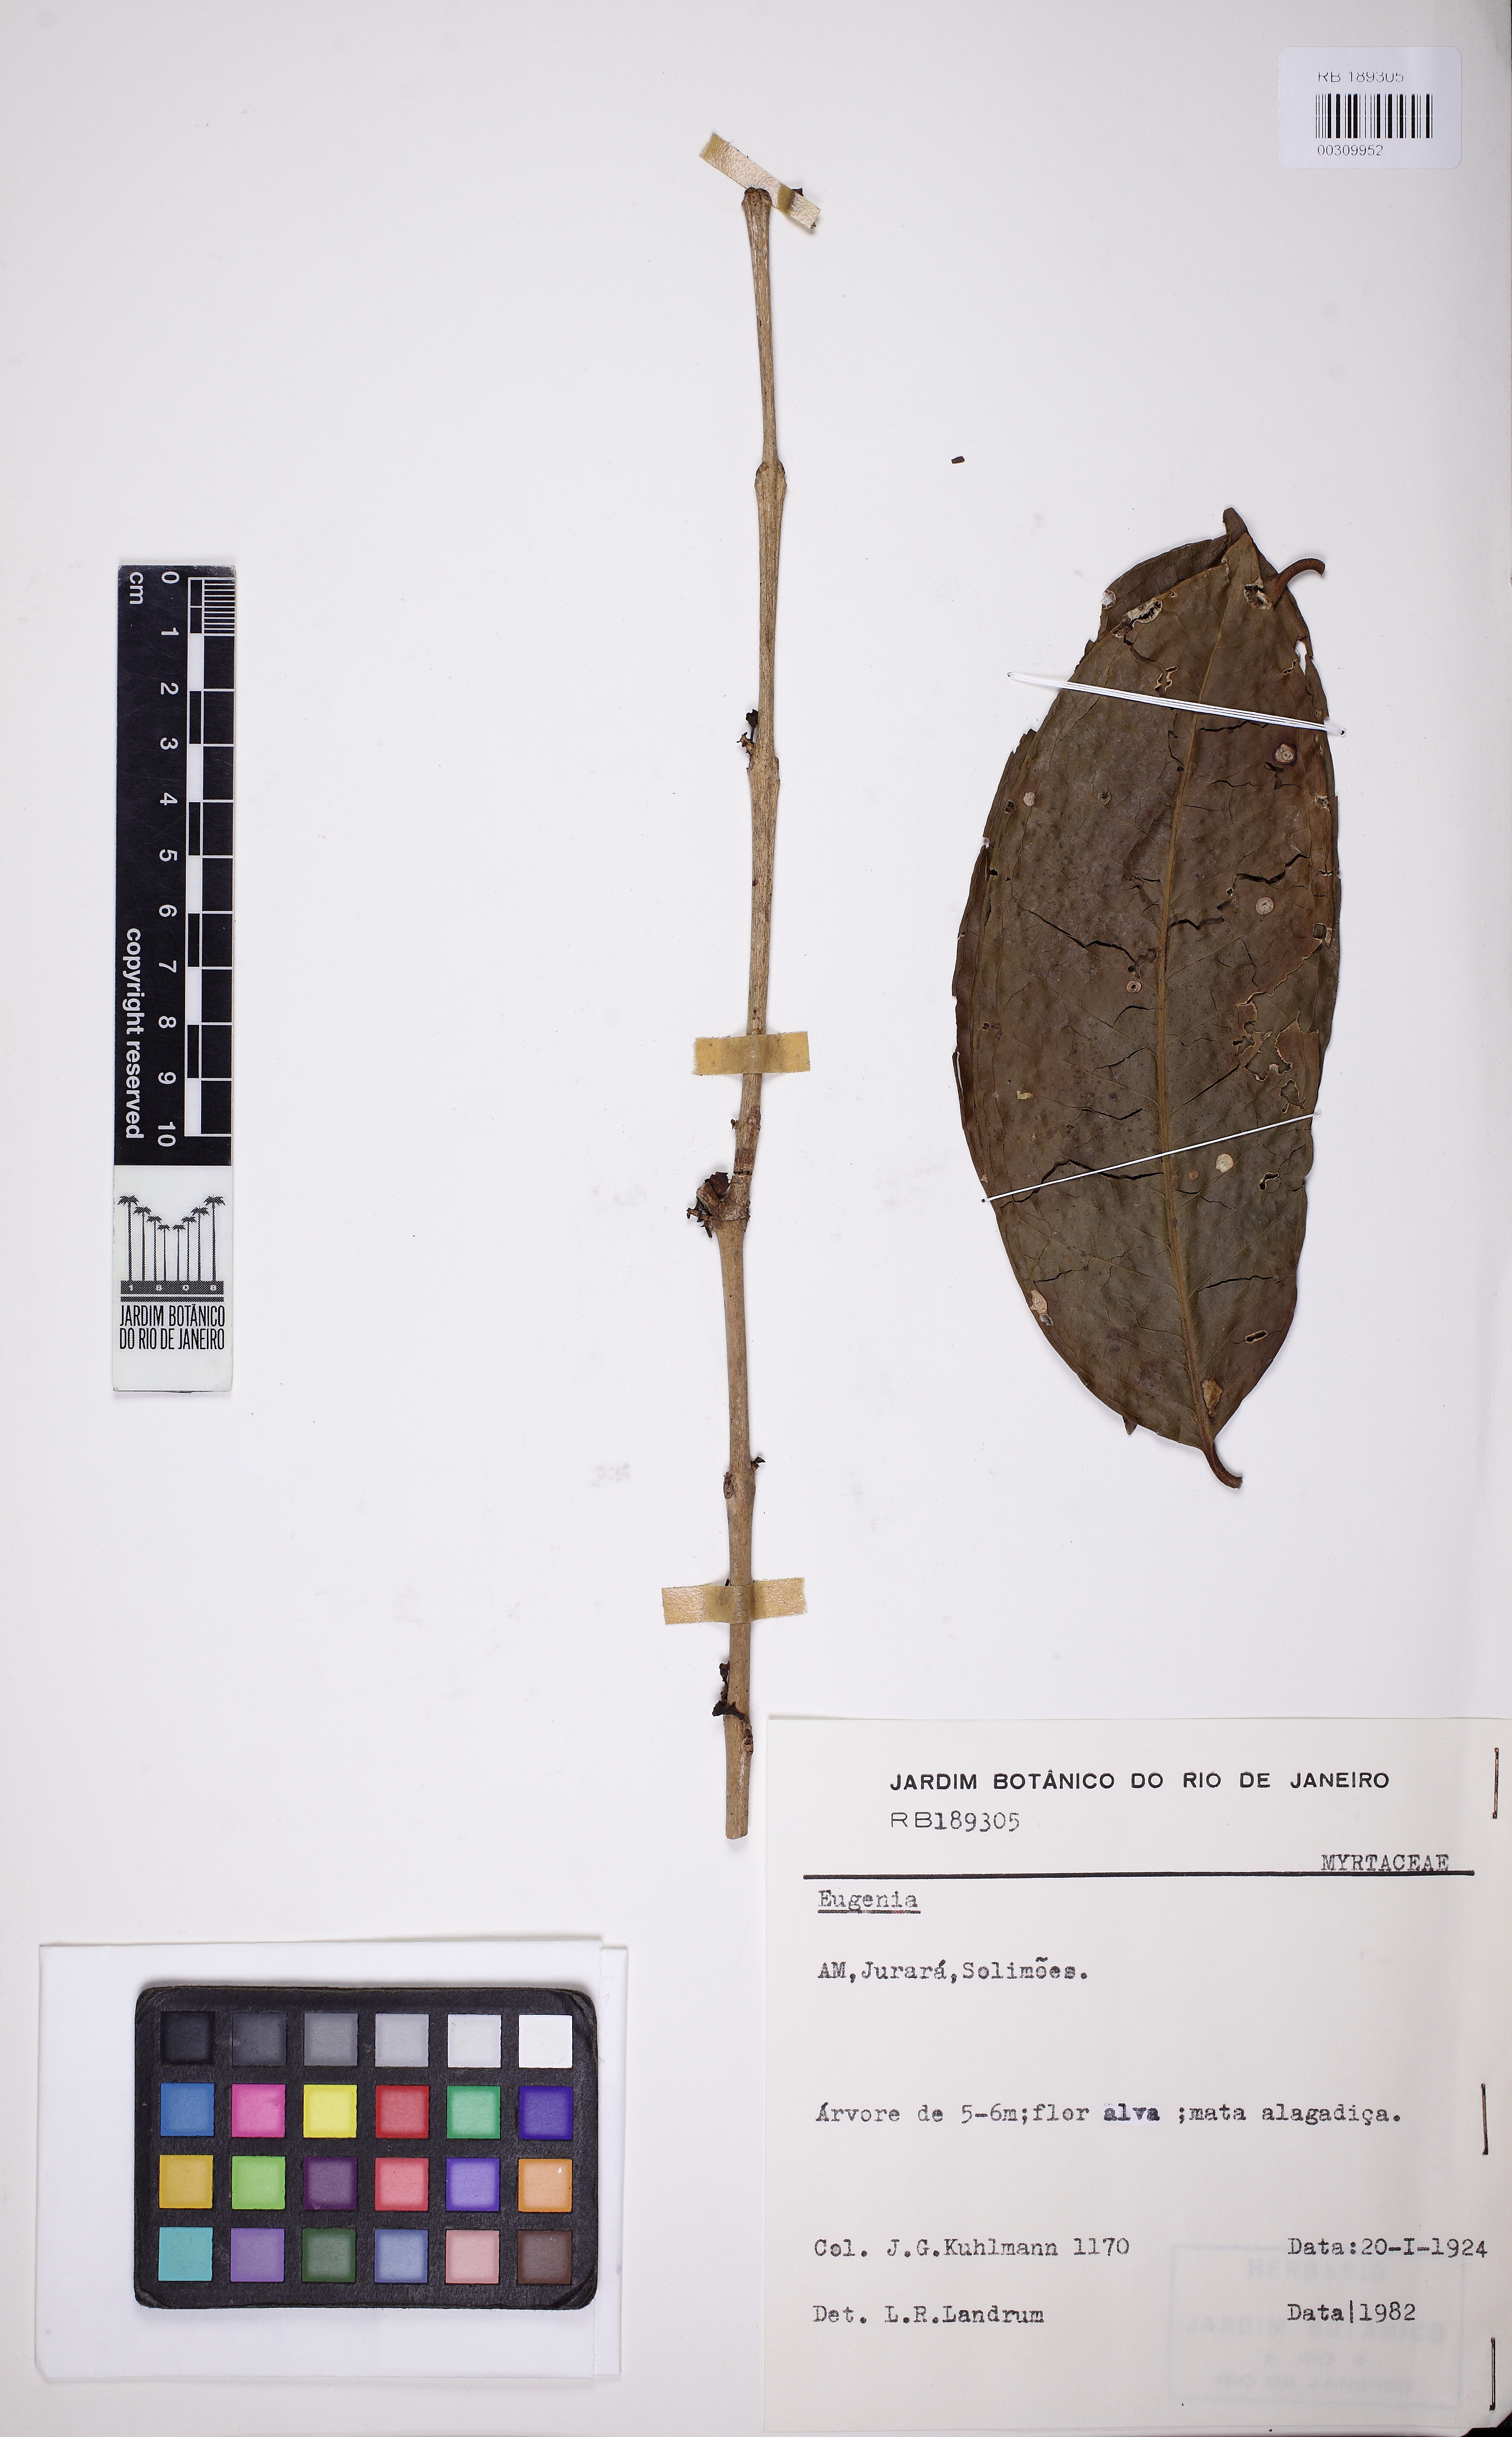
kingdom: Plantae
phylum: Tracheophyta
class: Magnoliopsida
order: Myrtales
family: Myrtaceae
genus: Eugenia
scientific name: Eugenia stictopetala
